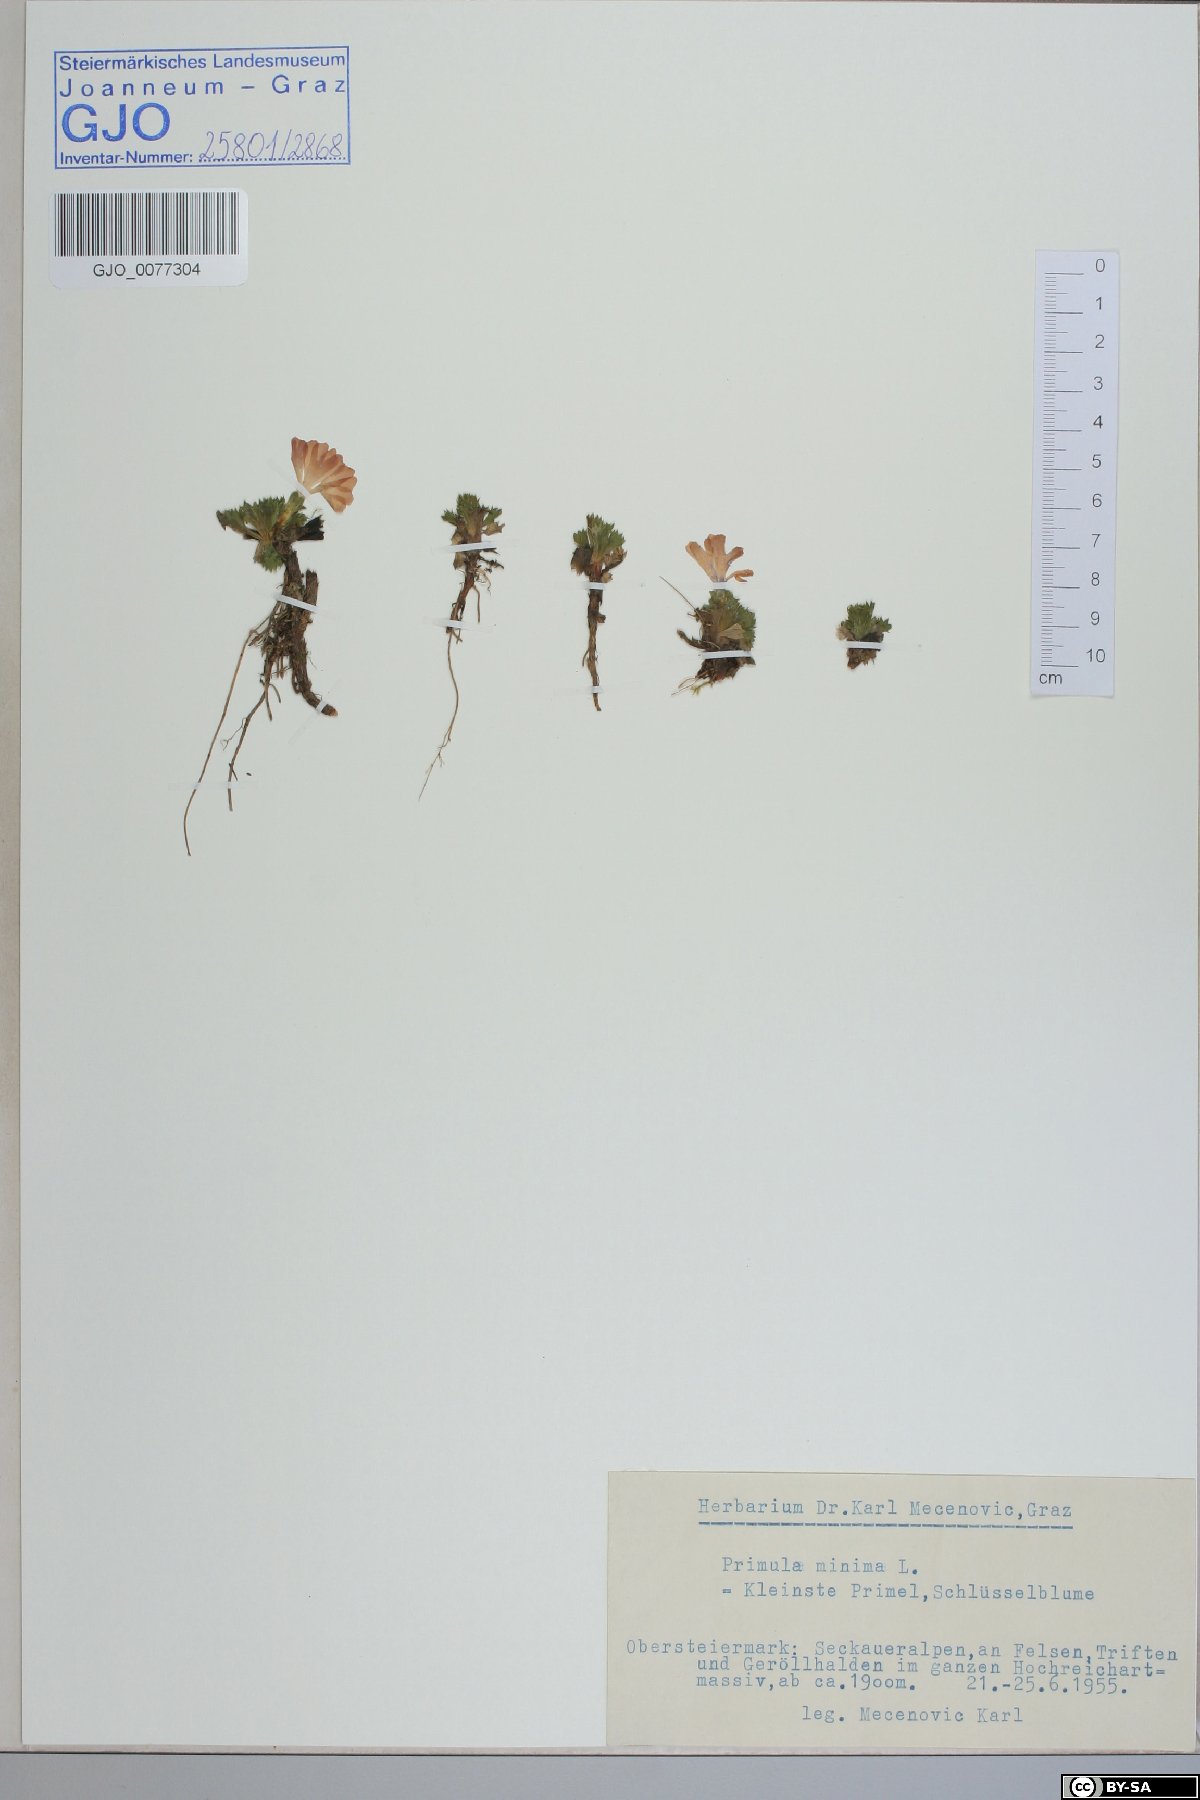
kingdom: Plantae
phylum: Tracheophyta
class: Magnoliopsida
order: Ericales
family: Primulaceae
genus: Primula
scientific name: Primula minima
